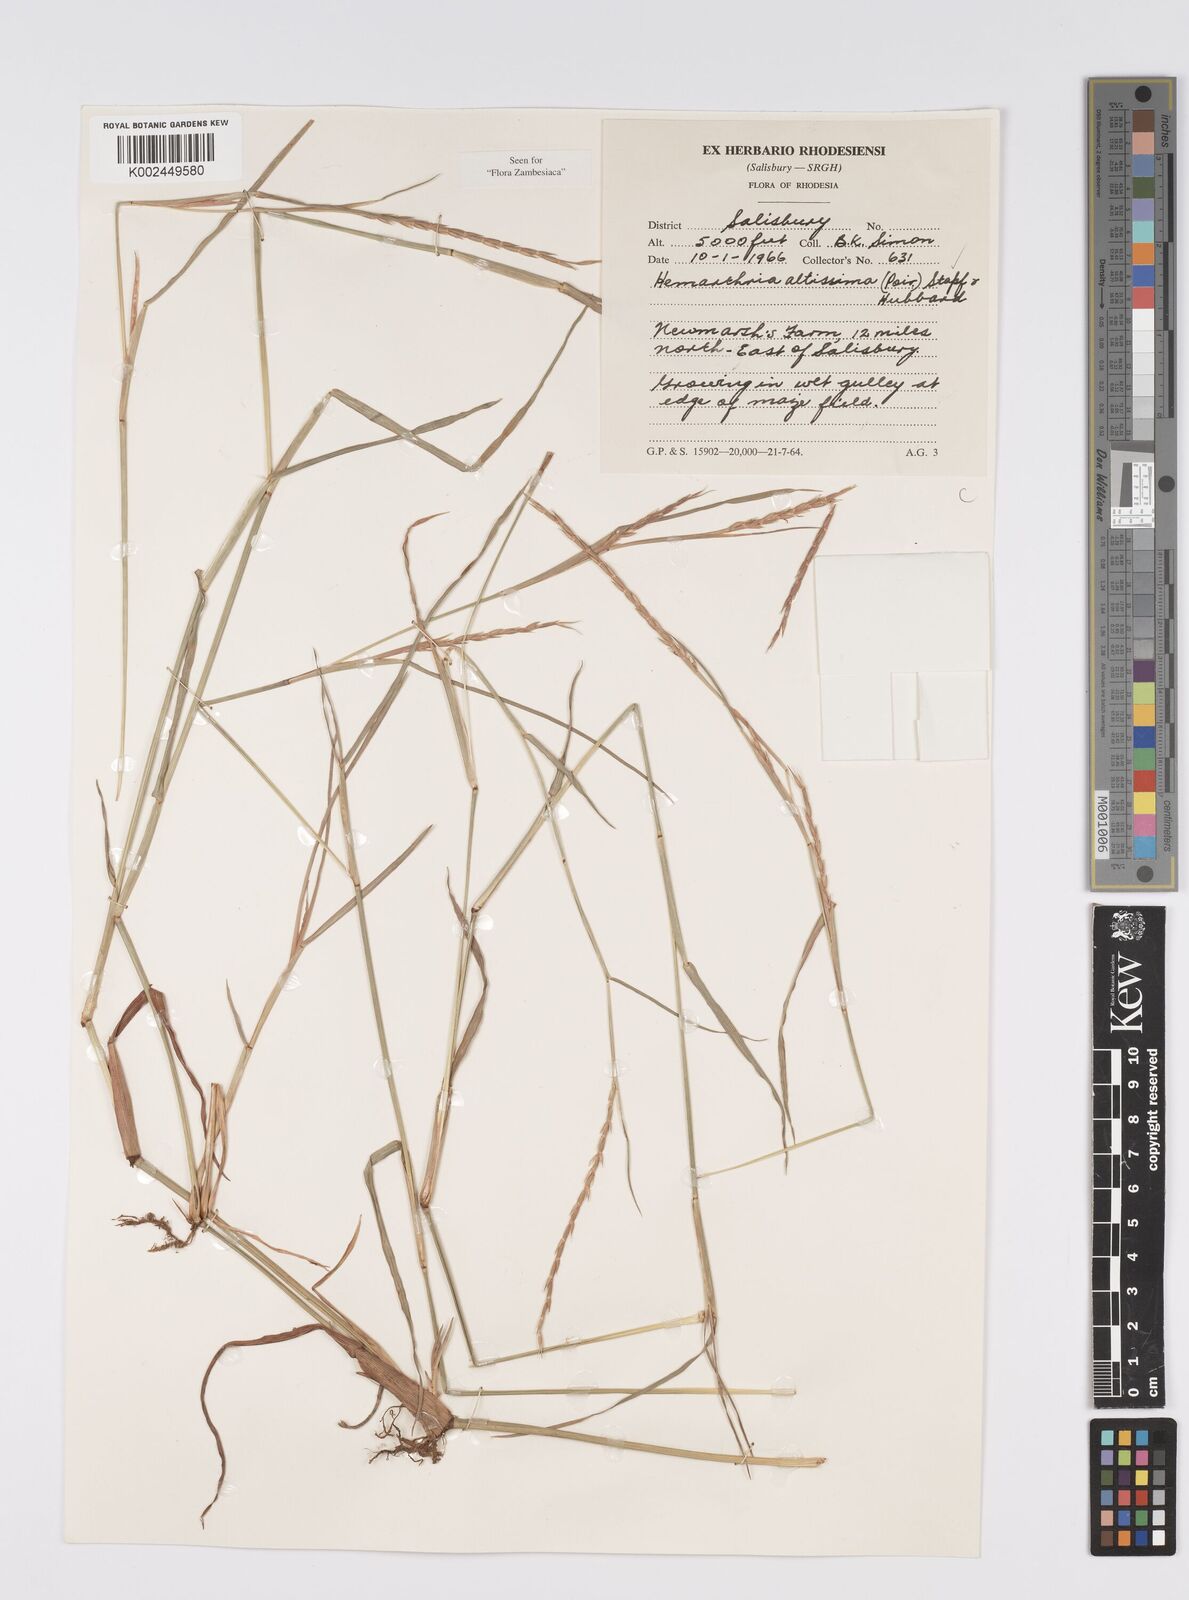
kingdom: Plantae
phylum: Tracheophyta
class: Liliopsida
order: Poales
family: Poaceae
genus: Hemarthria
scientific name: Hemarthria altissima
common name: African jointgrass
